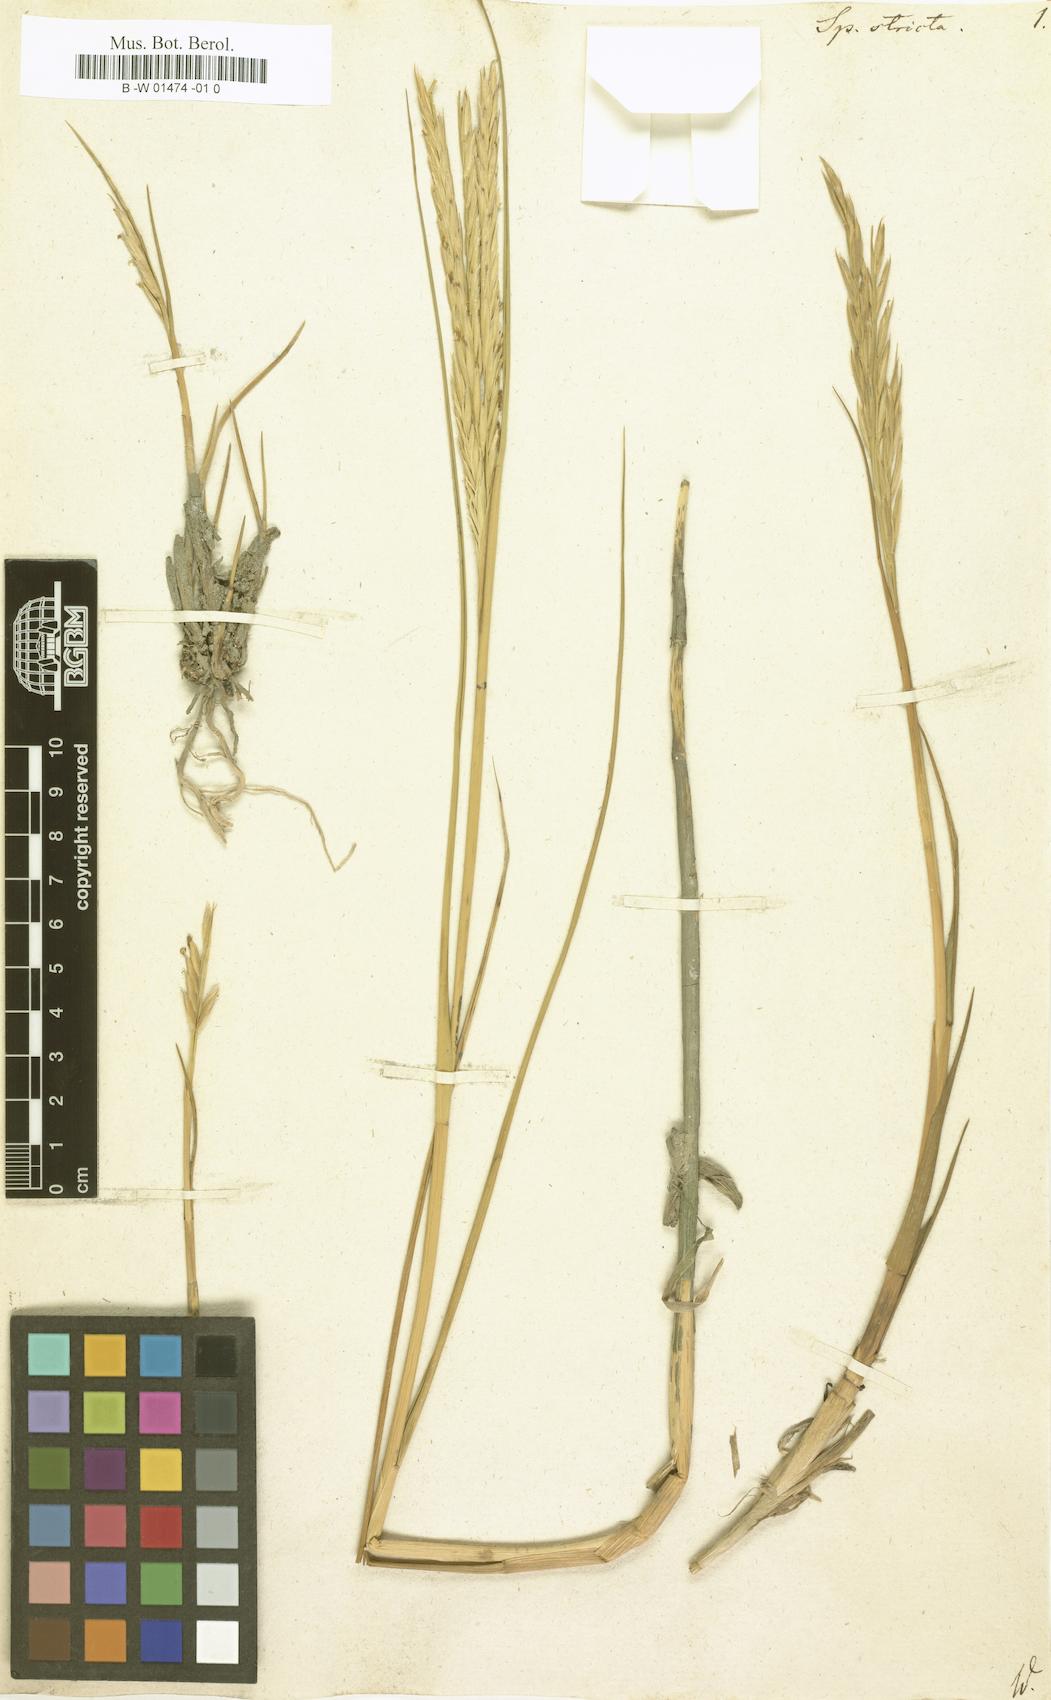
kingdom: Plantae
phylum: Tracheophyta
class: Liliopsida
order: Poales
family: Poaceae
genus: Sporobolus
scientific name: Sporobolus maritimus
